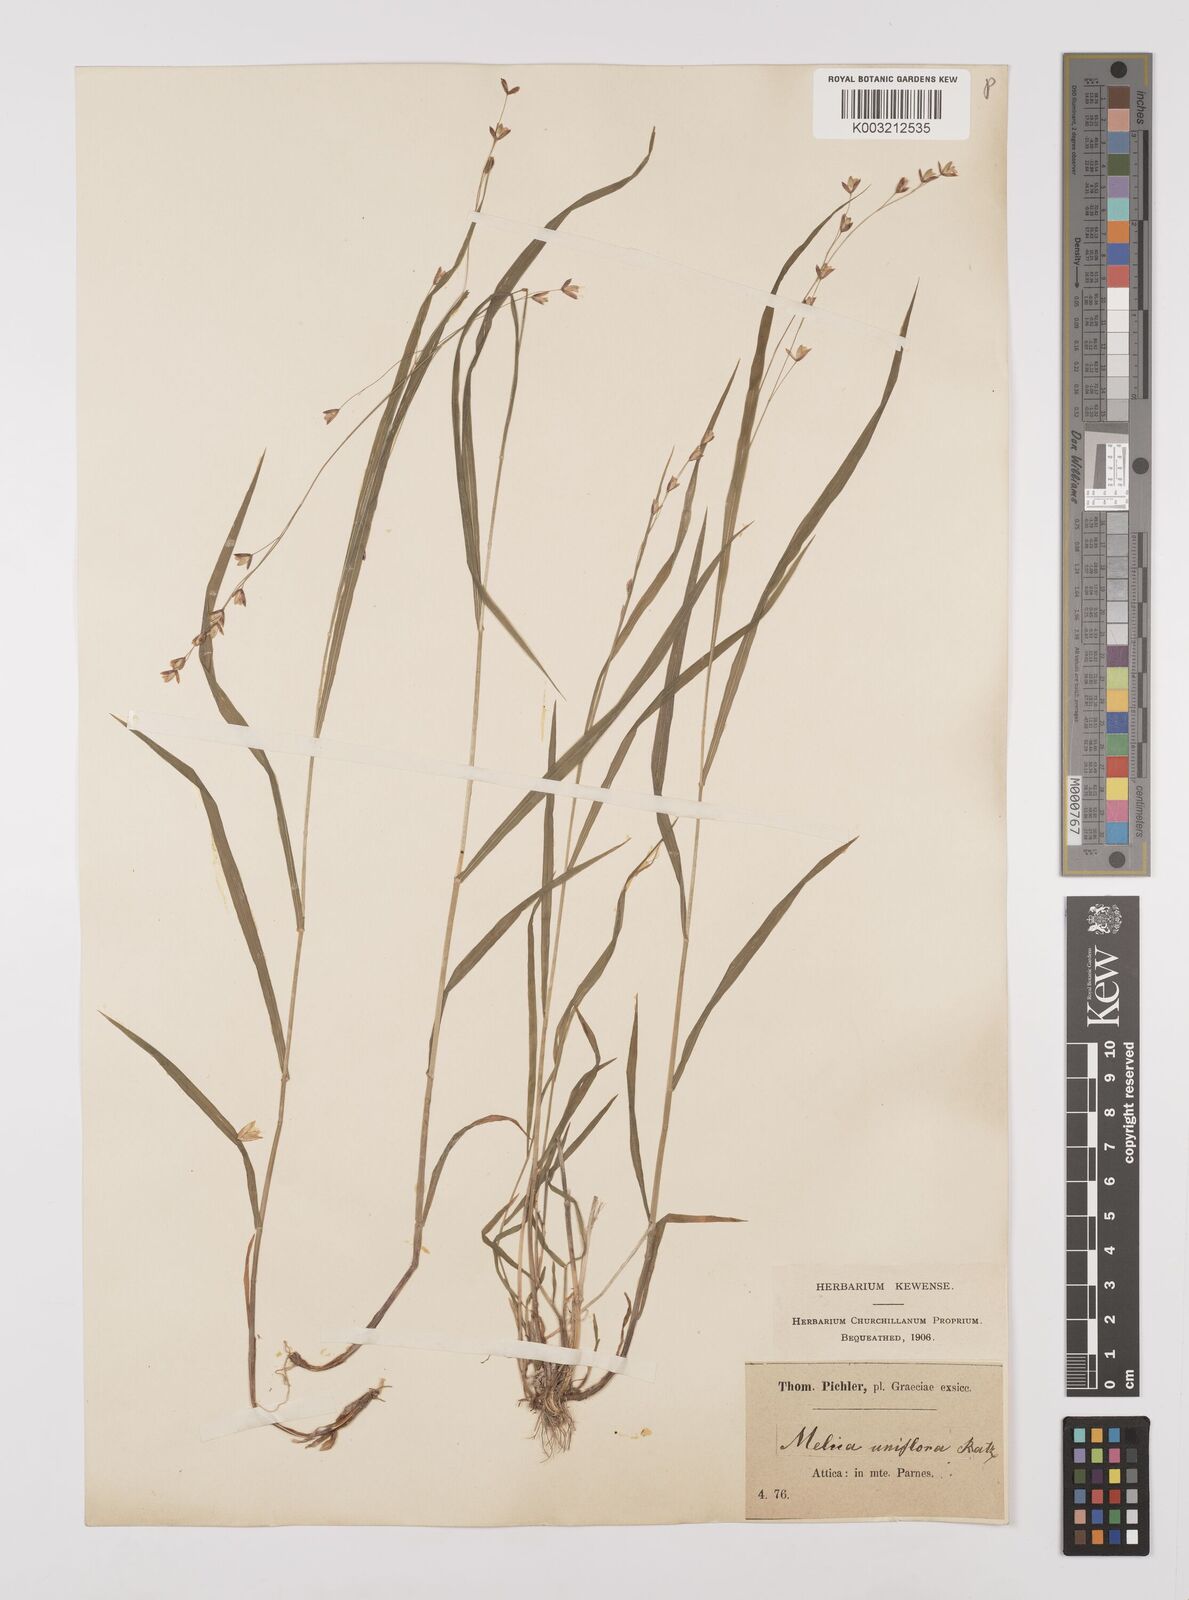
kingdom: Plantae
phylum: Tracheophyta
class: Liliopsida
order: Poales
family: Poaceae
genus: Melica
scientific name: Melica uniflora
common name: Wood melick
